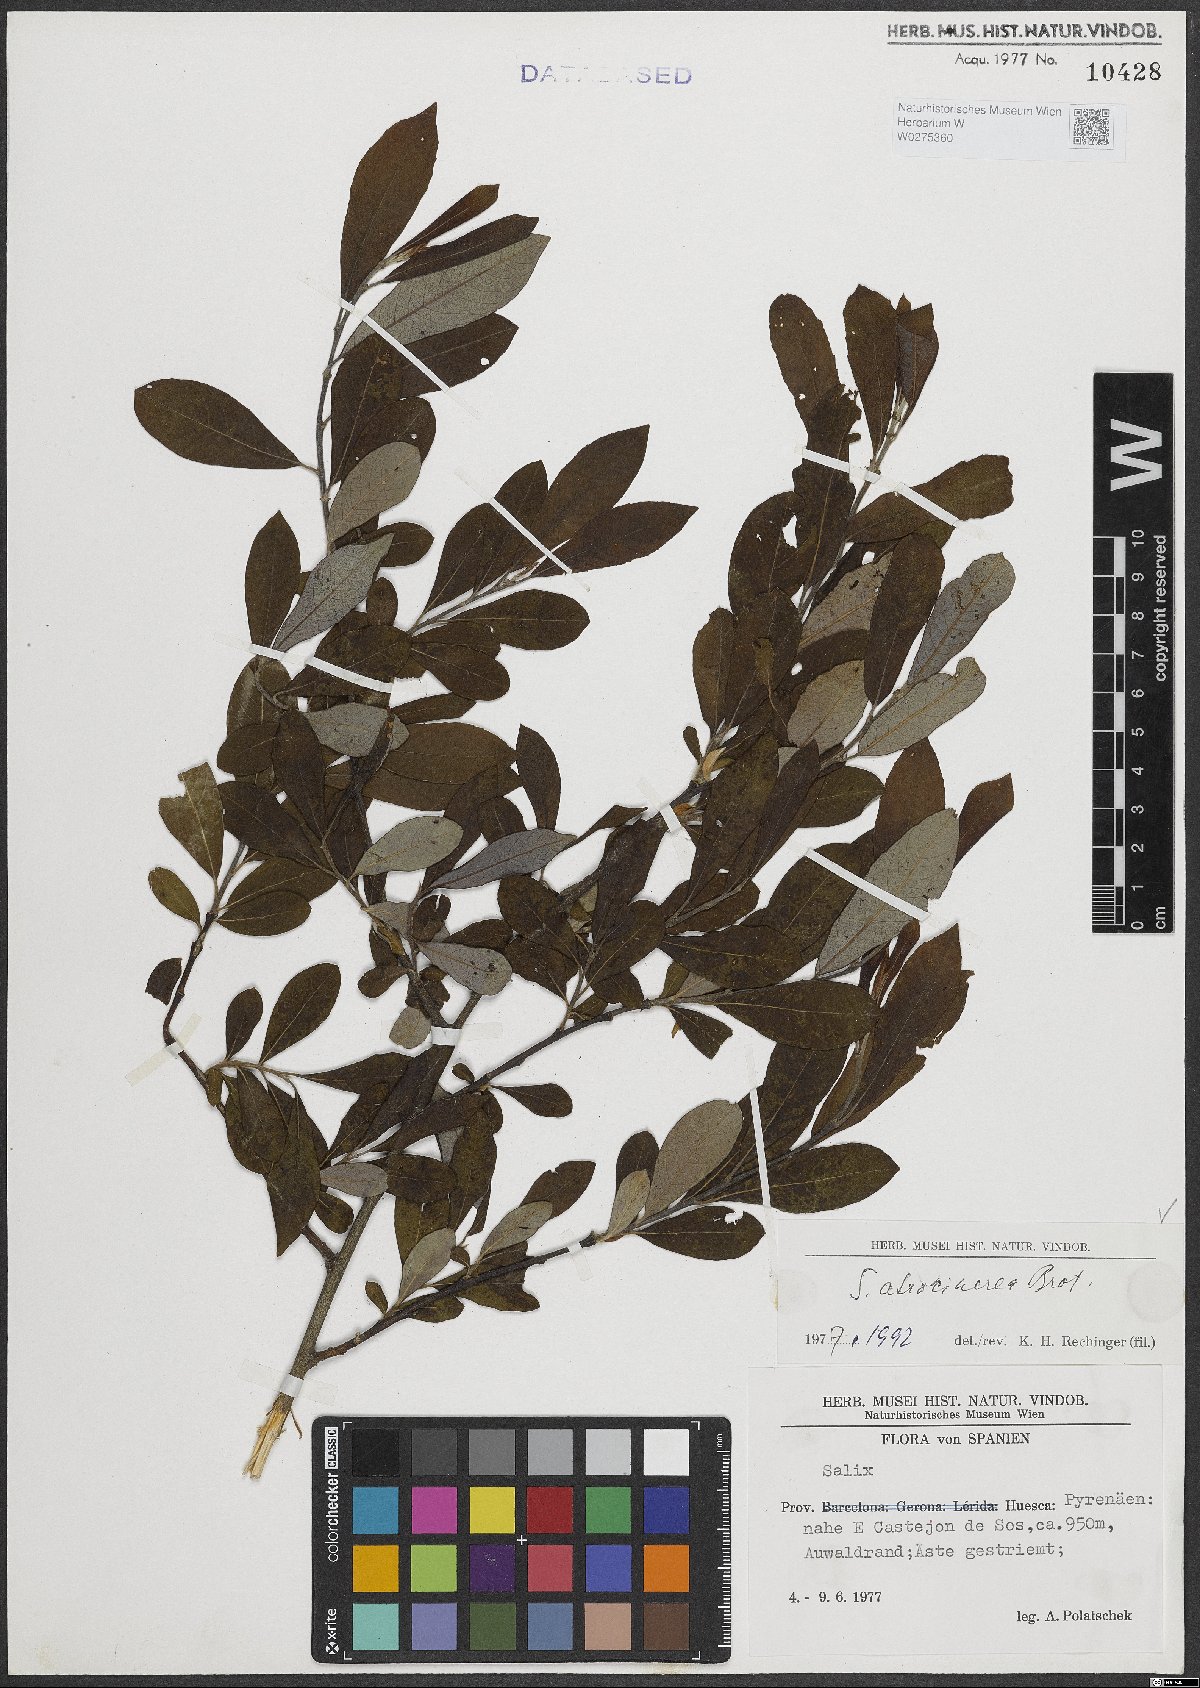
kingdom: Plantae
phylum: Tracheophyta
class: Magnoliopsida
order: Malpighiales
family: Salicaceae
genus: Salix
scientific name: Salix atrocinerea
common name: Rusty willow
